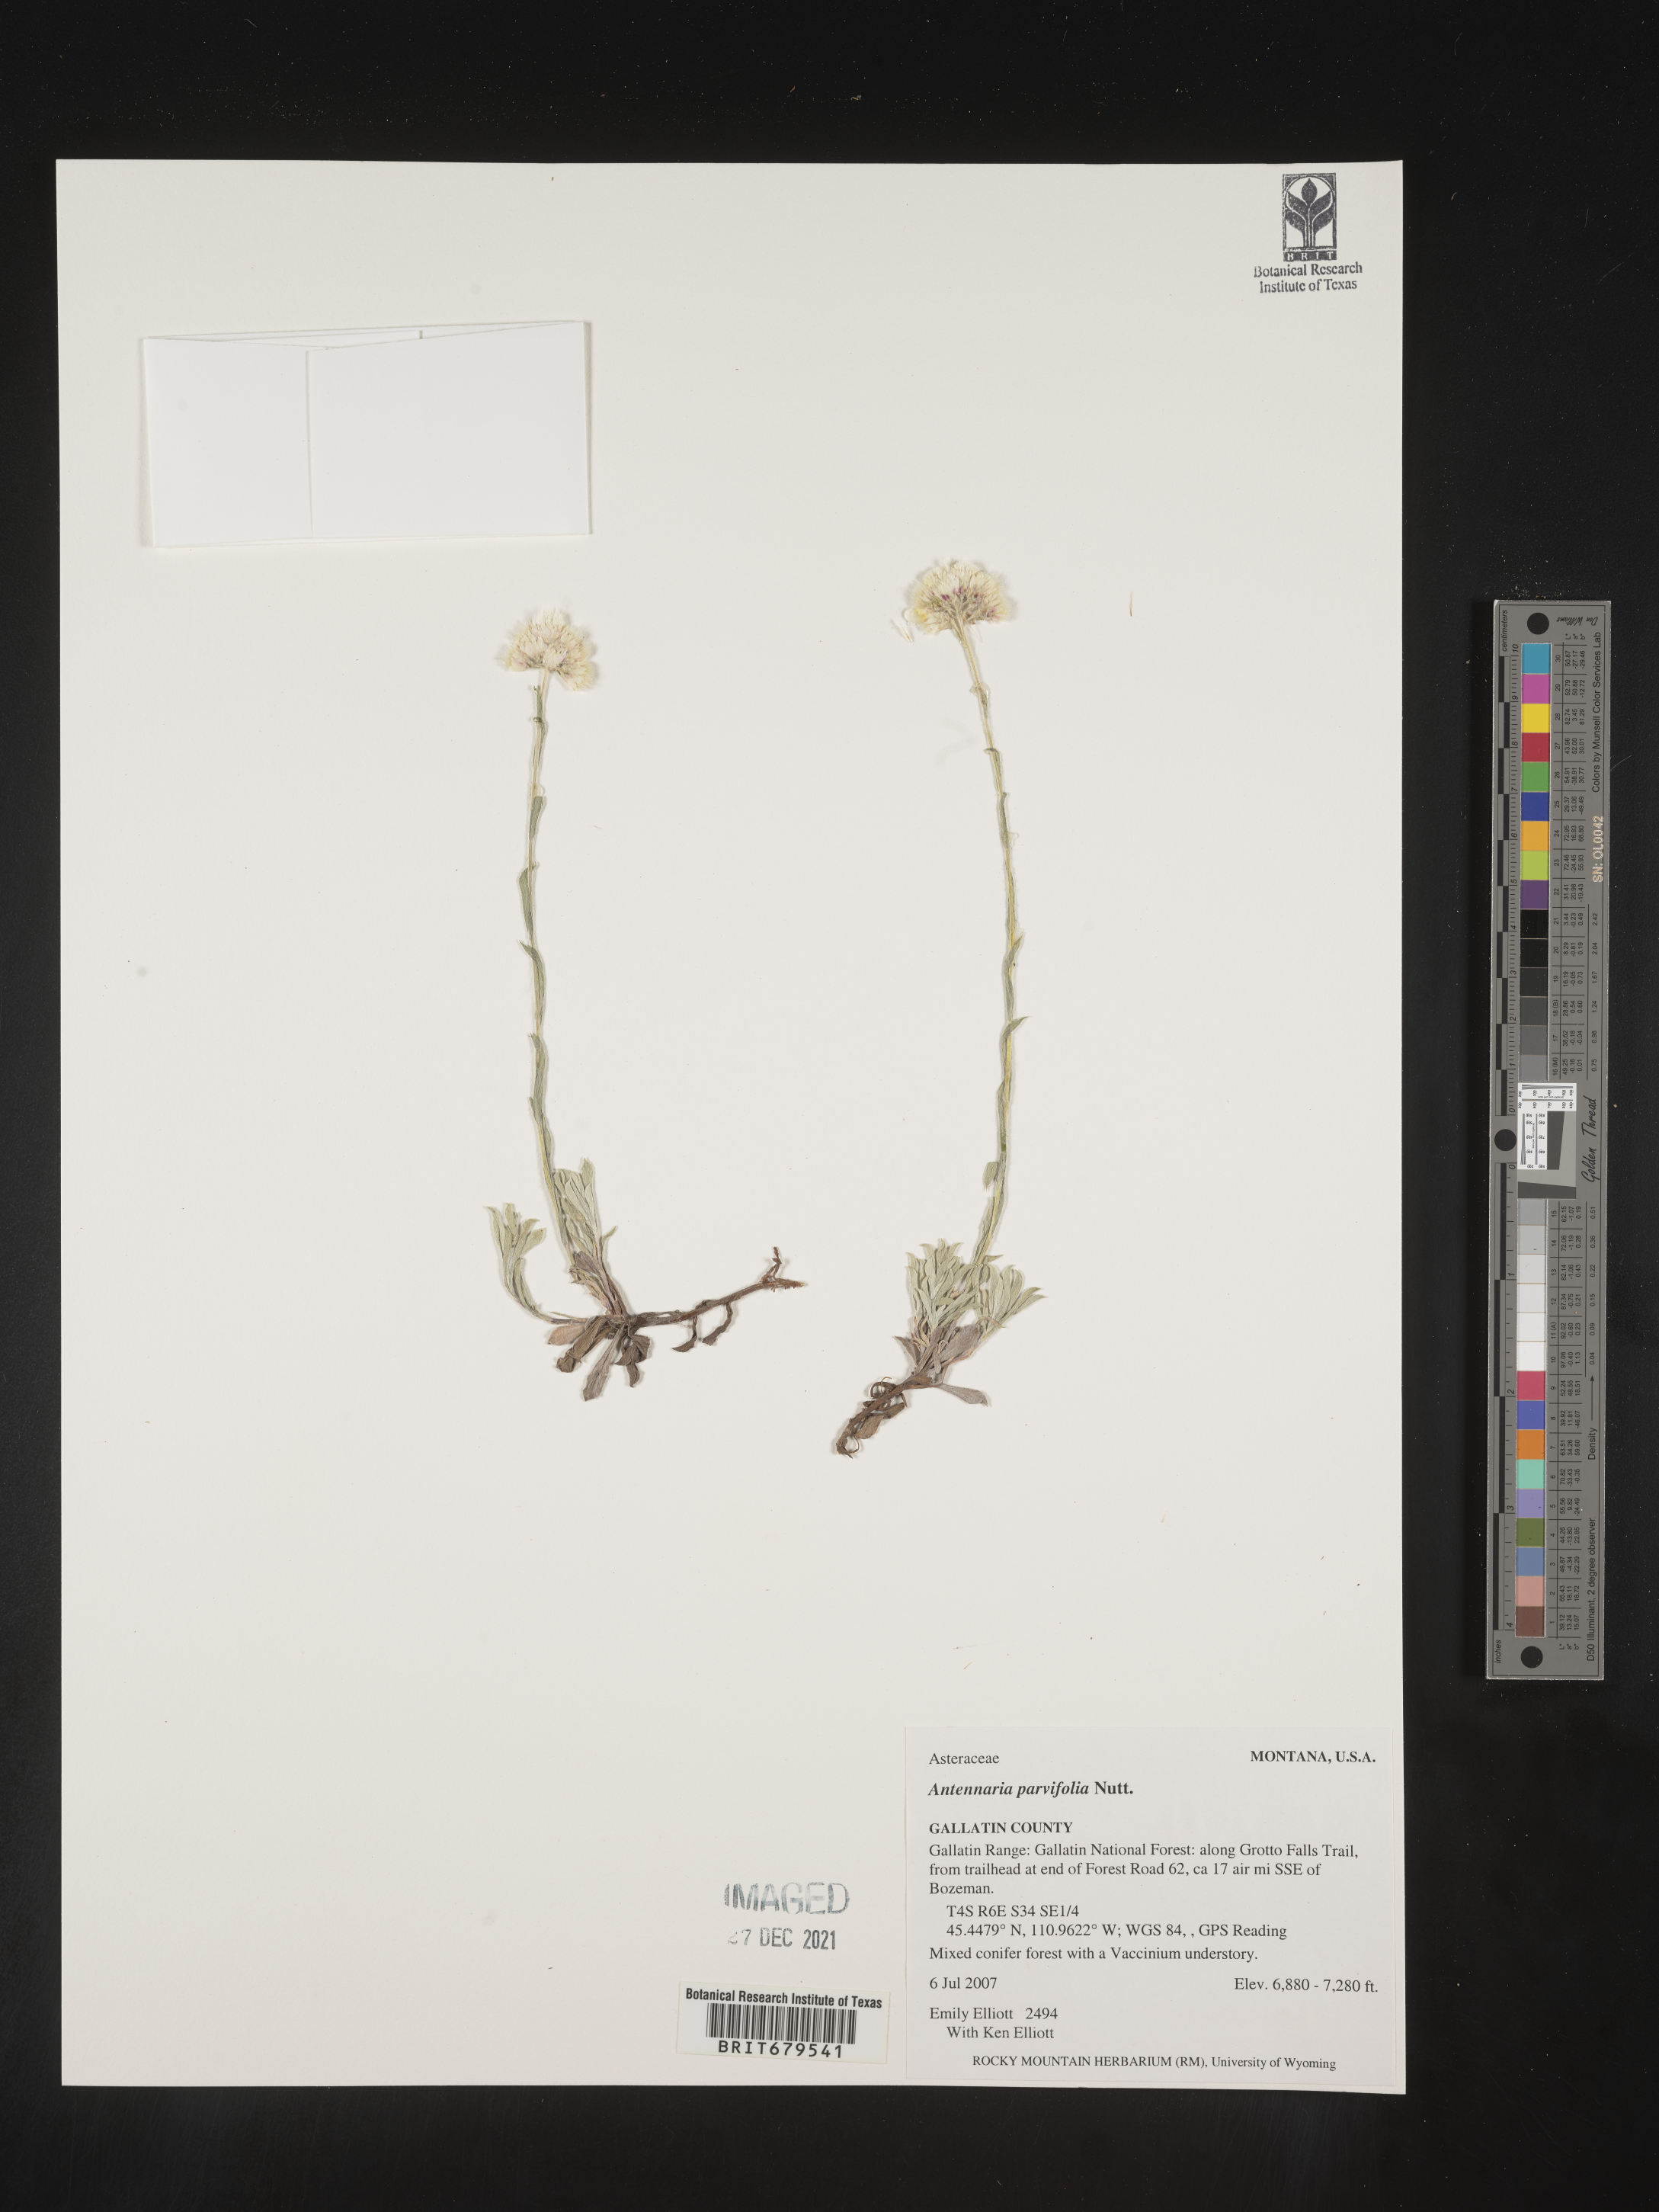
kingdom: Plantae
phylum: Tracheophyta
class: Magnoliopsida
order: Asterales
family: Asteraceae
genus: Antennaria
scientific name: Antennaria parvifolia
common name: Nuttall's pussytoes
